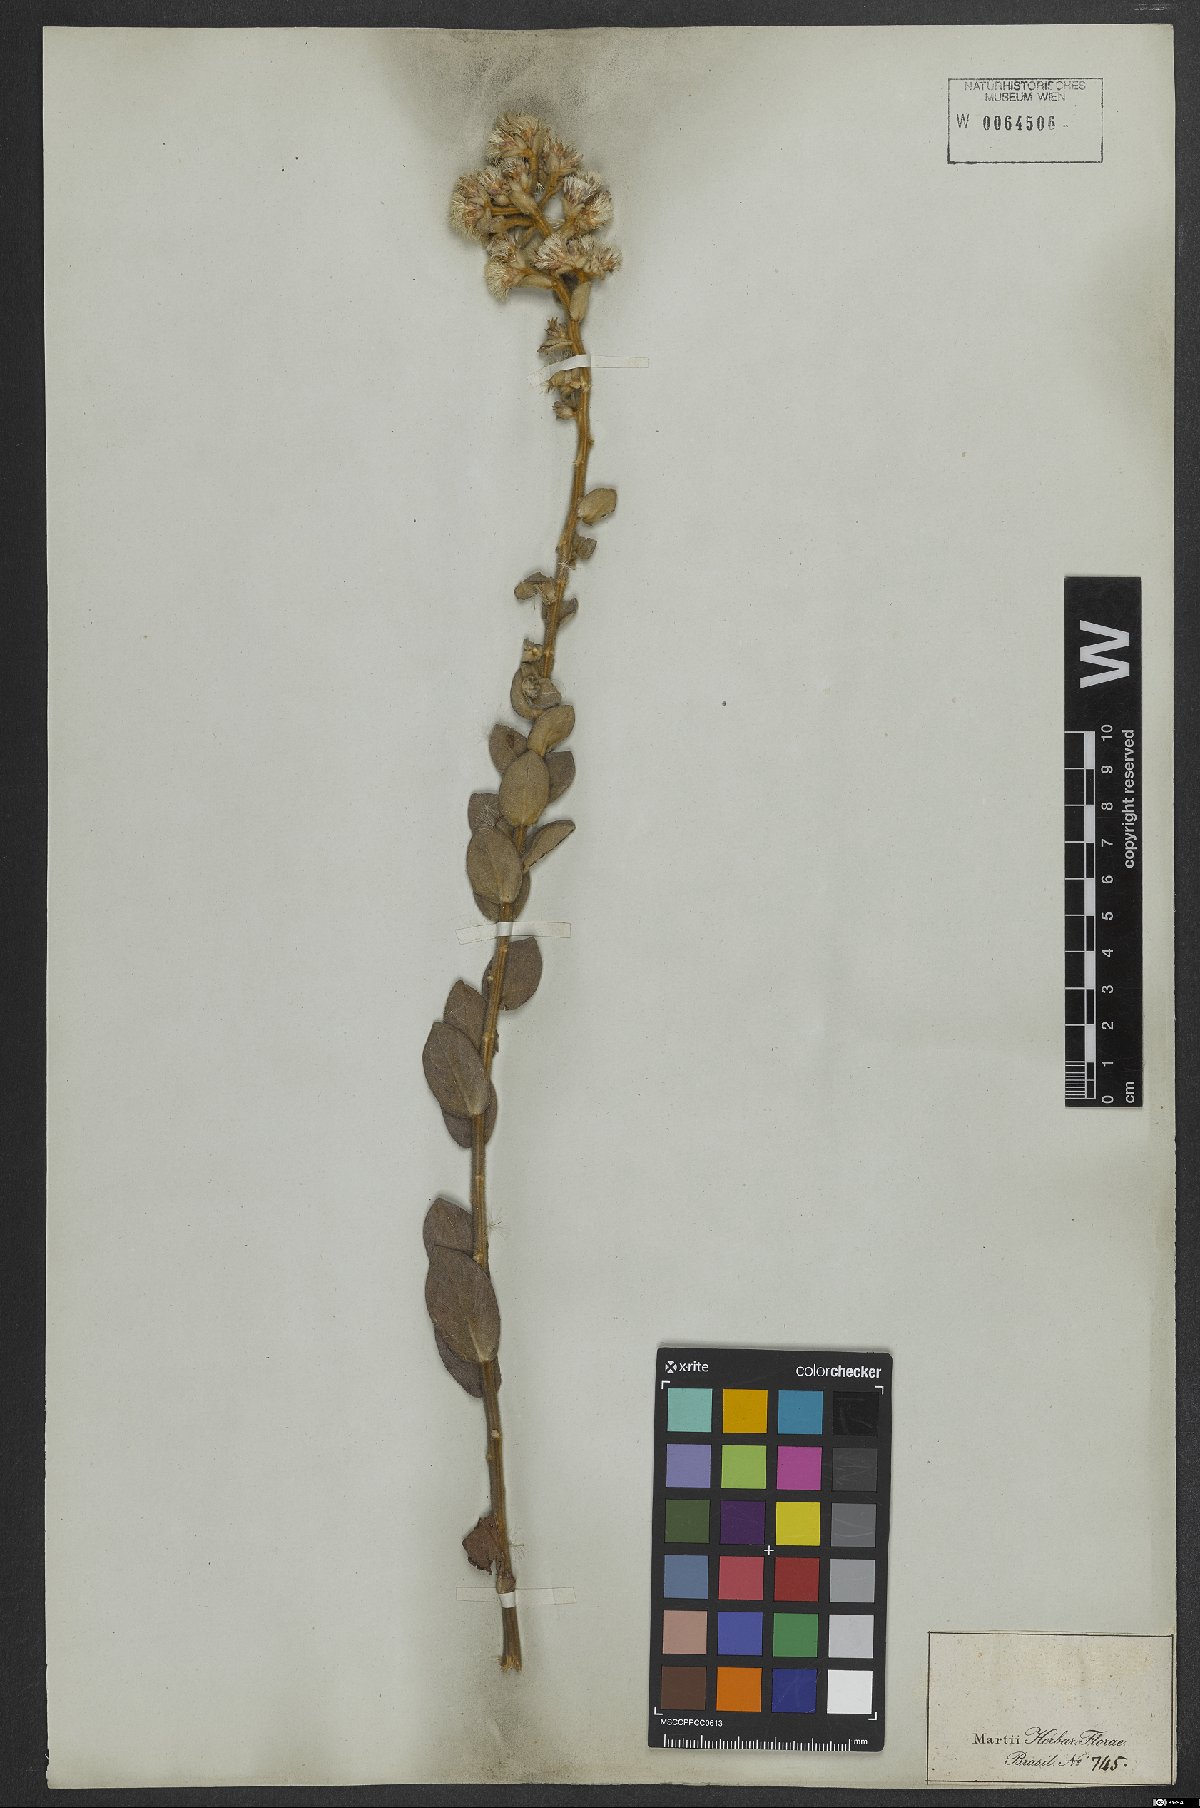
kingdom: Plantae
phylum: Tracheophyta
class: Magnoliopsida
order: Asterales
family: Asteraceae
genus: Lepidaploa
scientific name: Lepidaploa barbata
